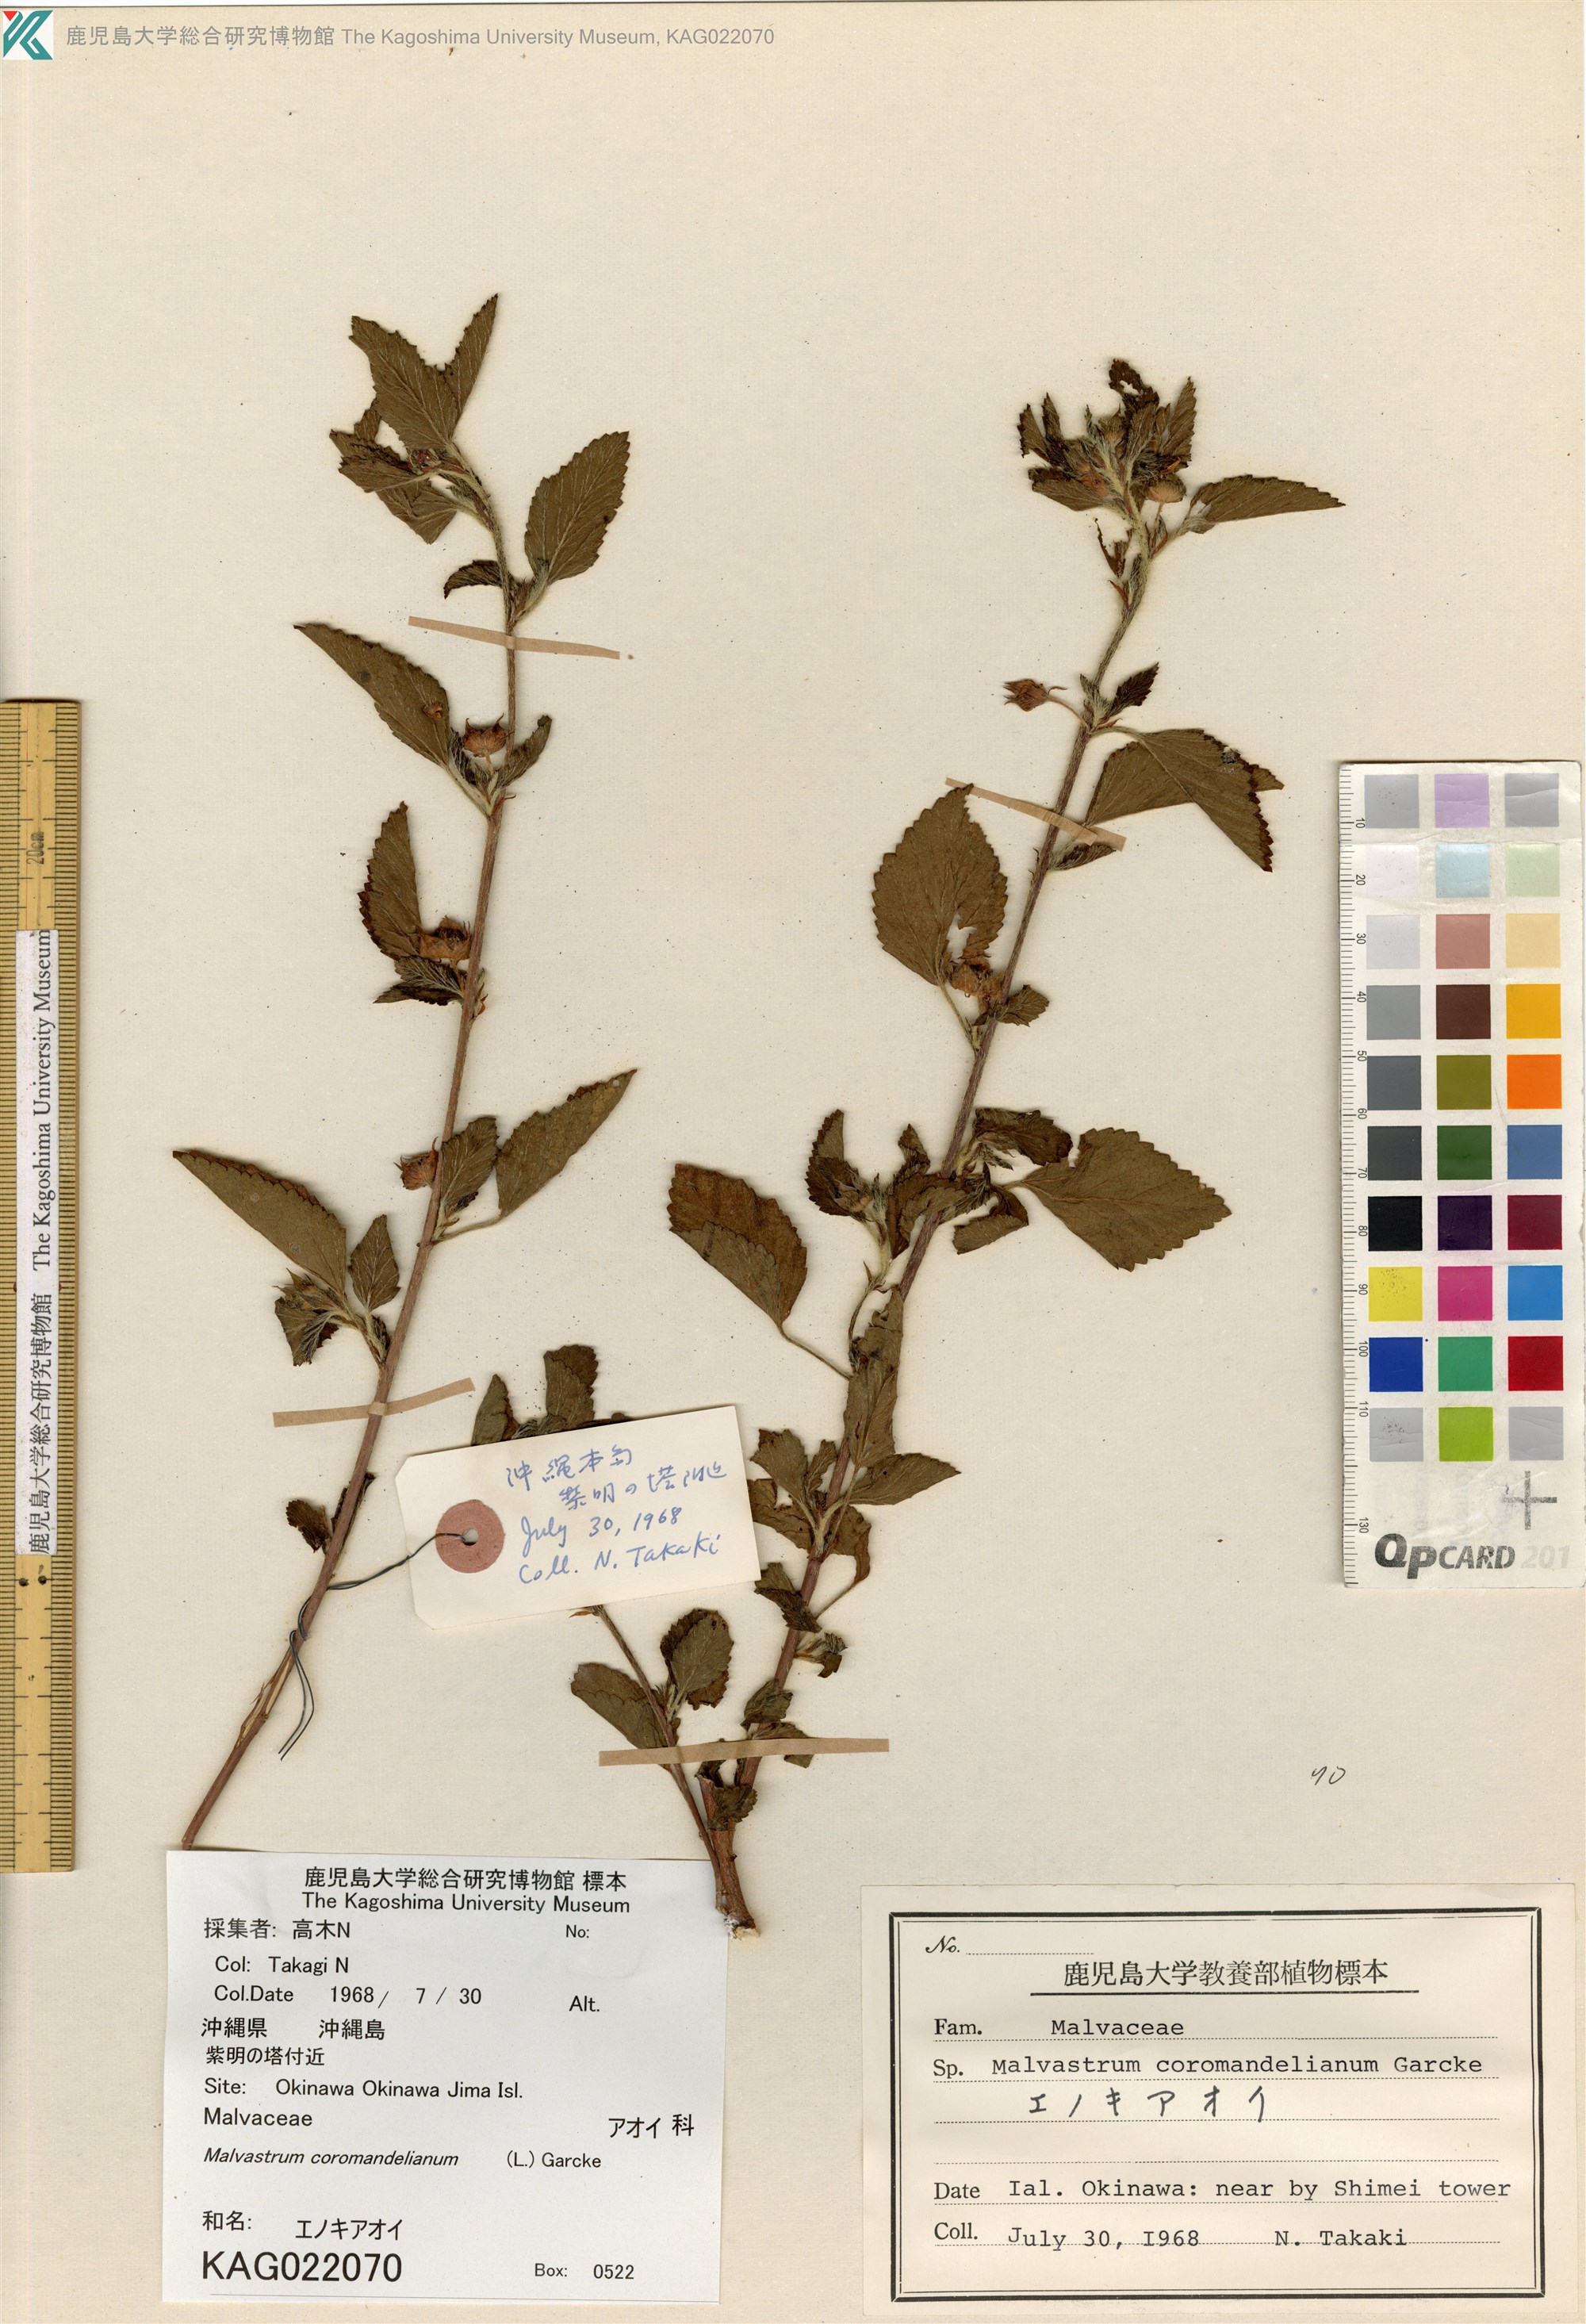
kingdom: Plantae
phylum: Tracheophyta
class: Magnoliopsida
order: Malvales
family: Malvaceae
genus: Malvastrum
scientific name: Malvastrum coromandelianum
